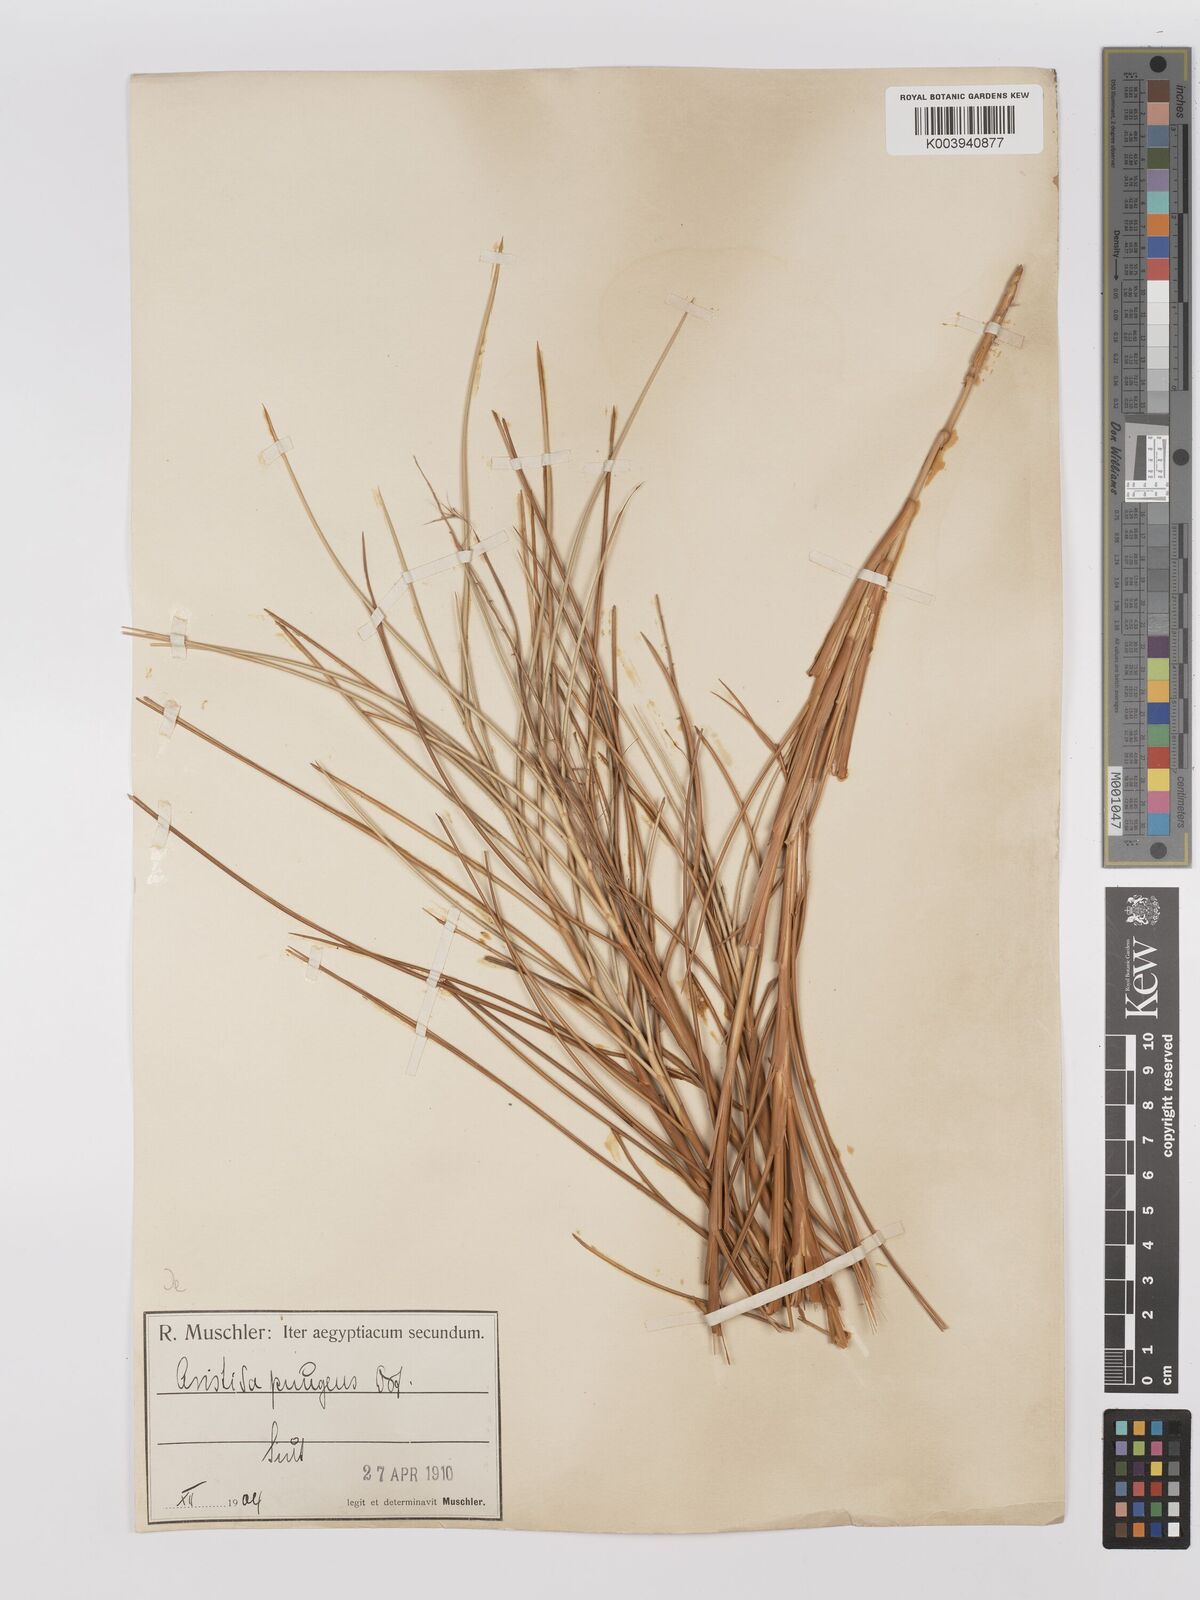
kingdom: Plantae
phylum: Tracheophyta
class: Liliopsida
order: Poales
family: Poaceae
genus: Stipagrostis
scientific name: Stipagrostis vulnerans
